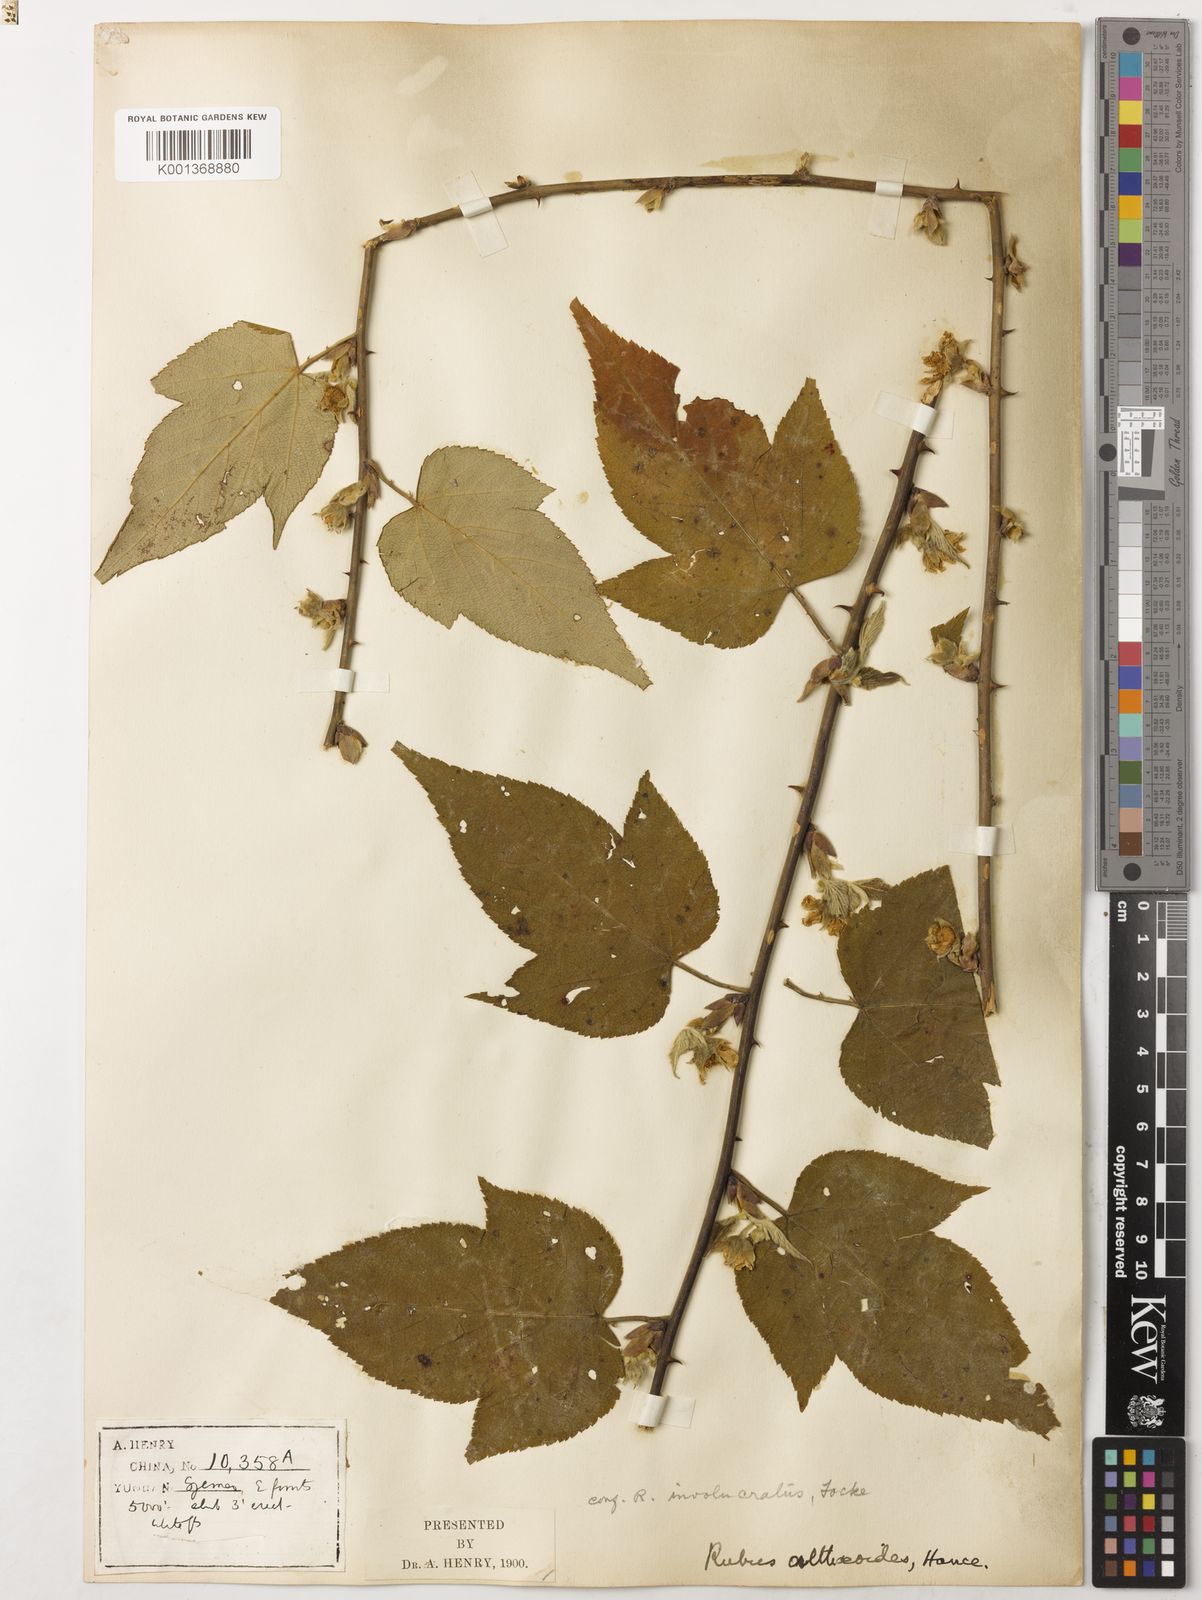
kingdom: Plantae
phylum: Tracheophyta
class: Magnoliopsida
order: Rosales
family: Rosaceae
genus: Rubus
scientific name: Rubus corchorifolius
